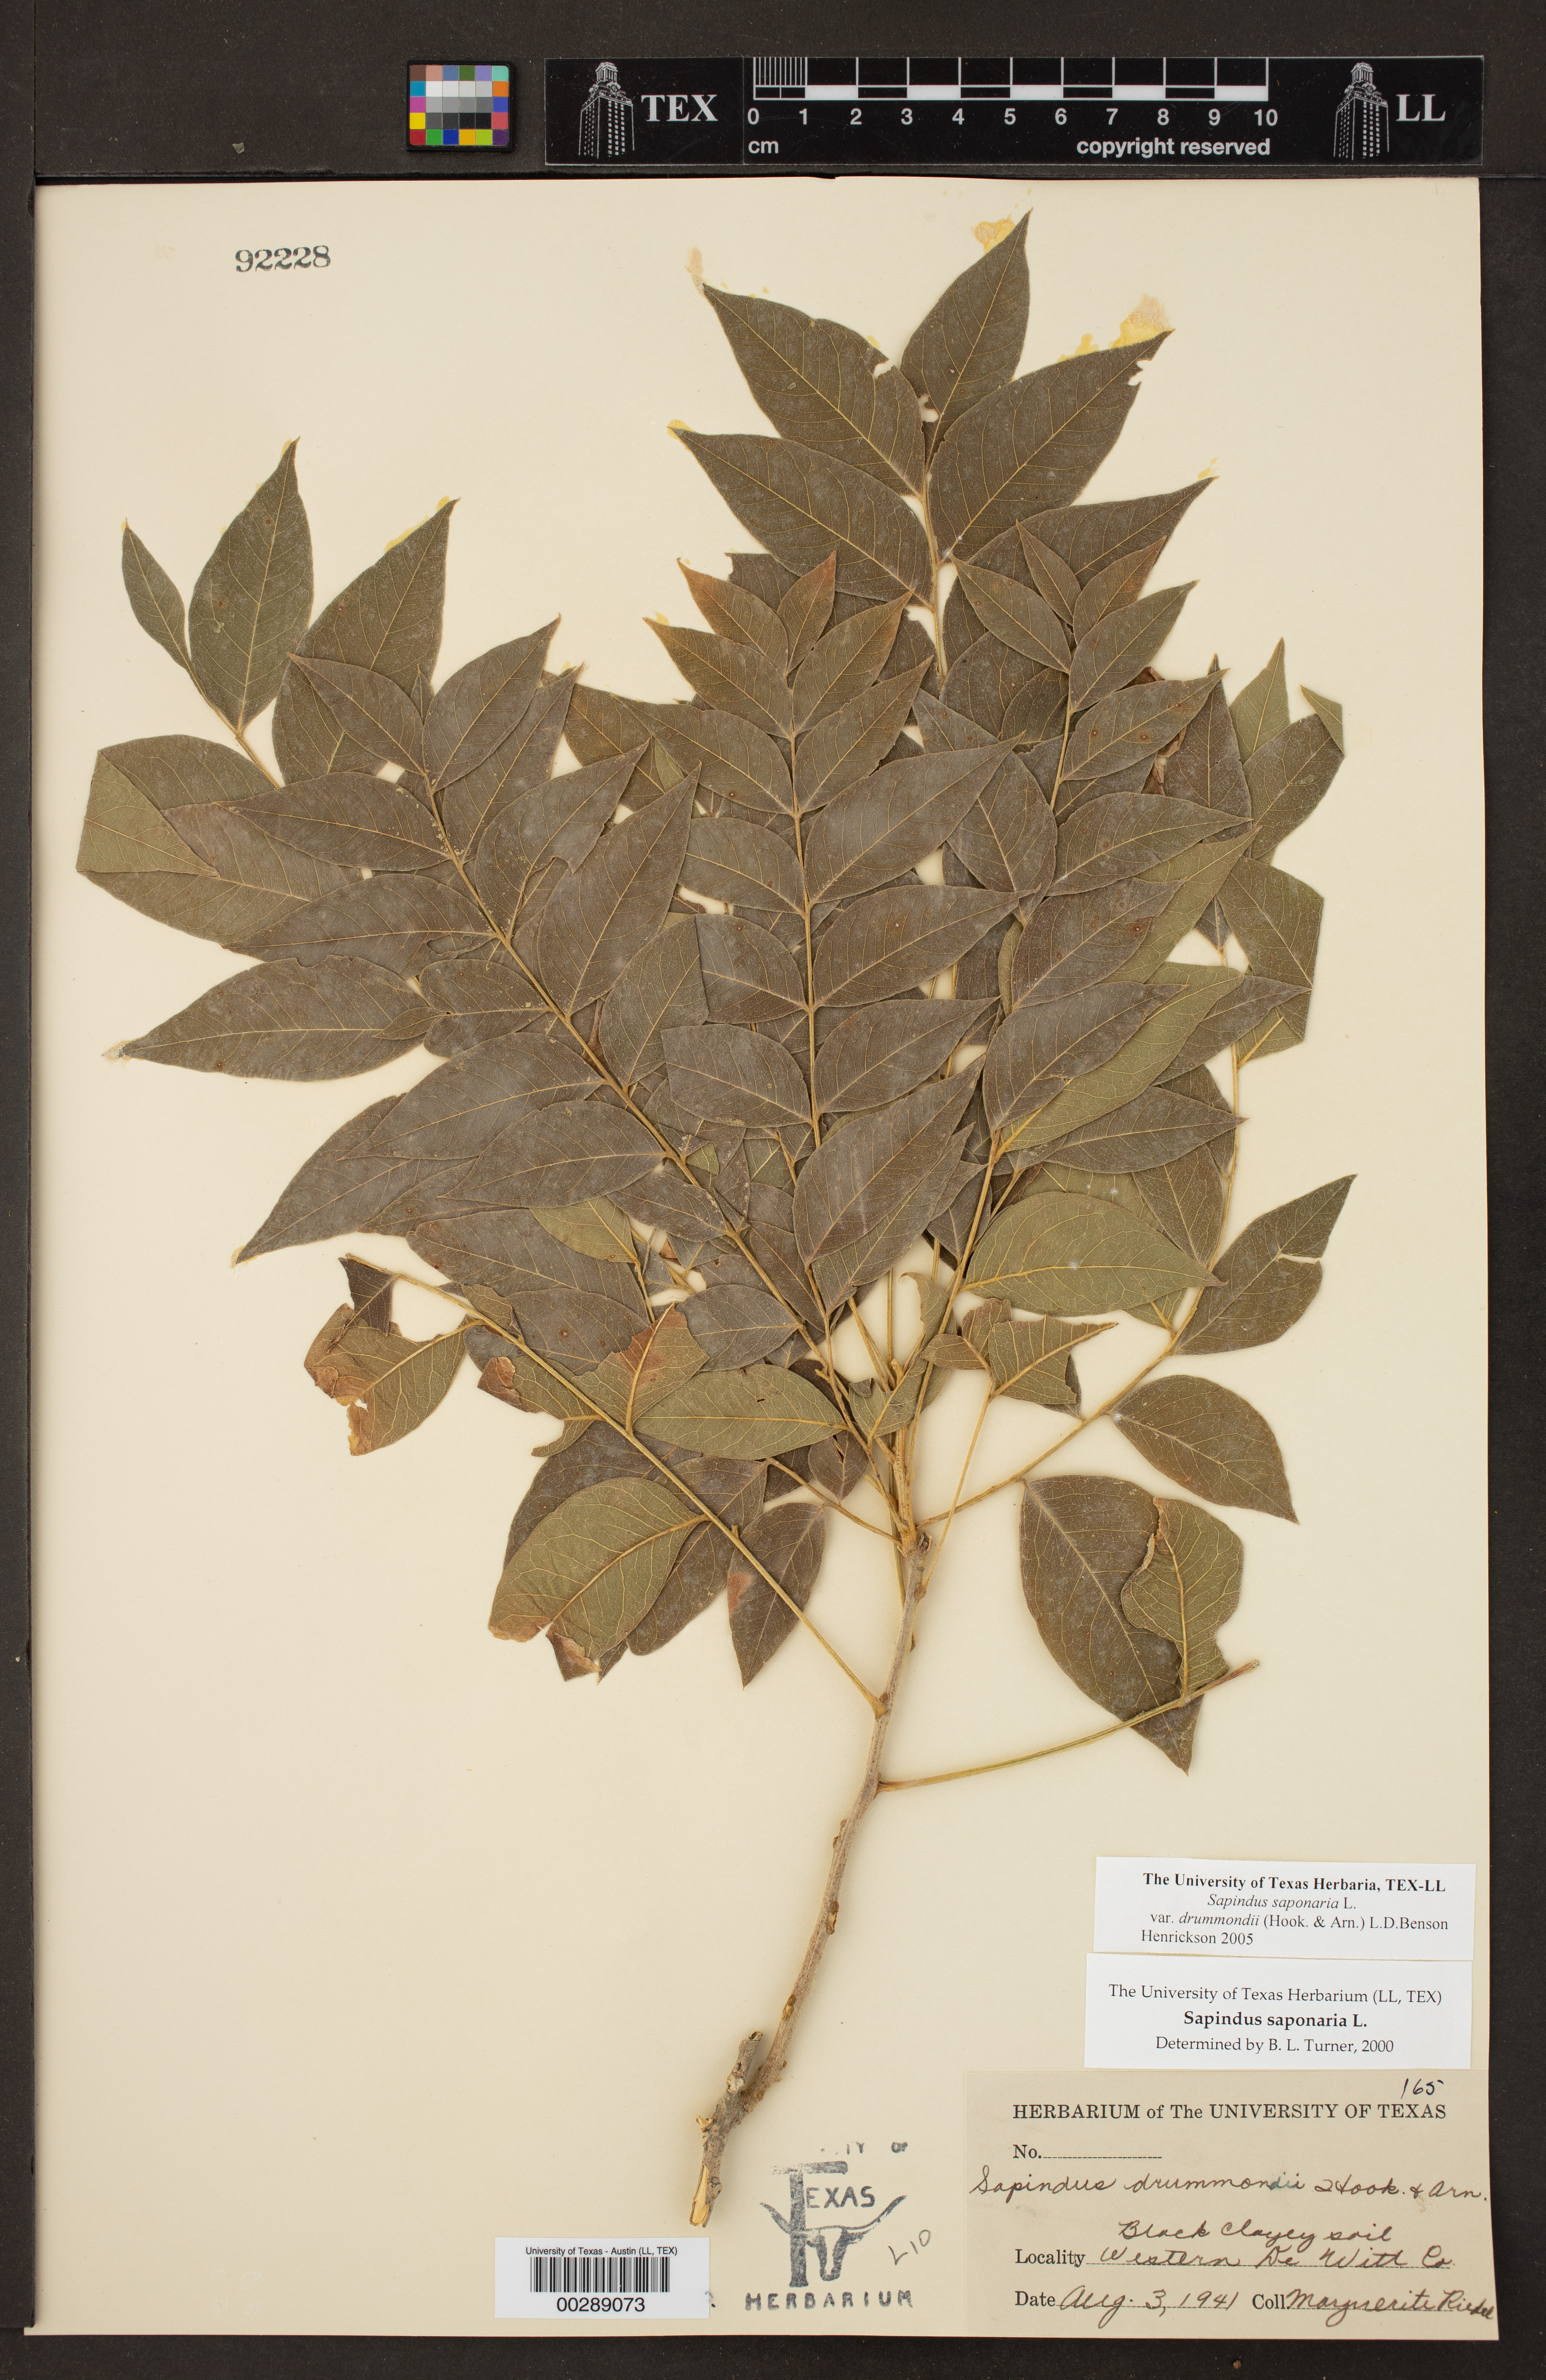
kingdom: Plantae
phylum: Tracheophyta
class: Magnoliopsida
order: Sapindales
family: Sapindaceae
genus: Sapindus
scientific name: Sapindus drummondii
